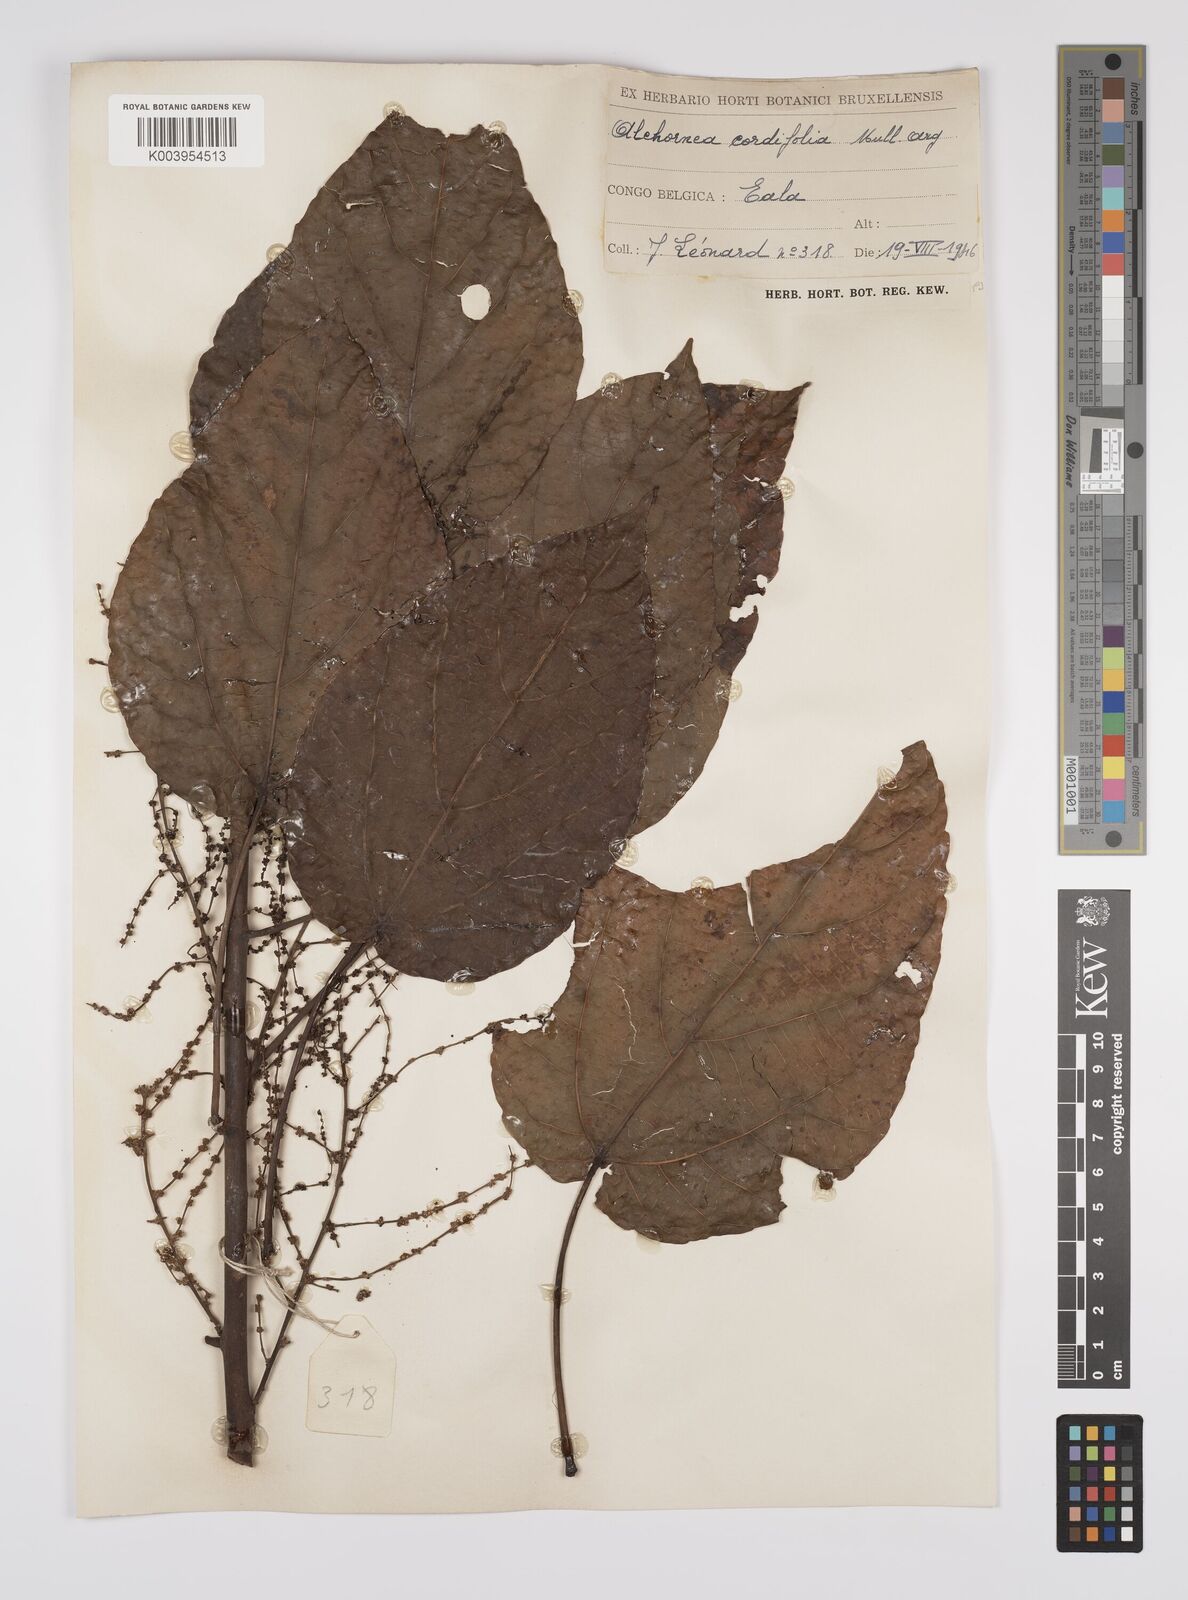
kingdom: Plantae
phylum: Tracheophyta
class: Magnoliopsida
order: Malpighiales
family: Euphorbiaceae
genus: Alchornea
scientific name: Alchornea cordifolia
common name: Christmasbush
